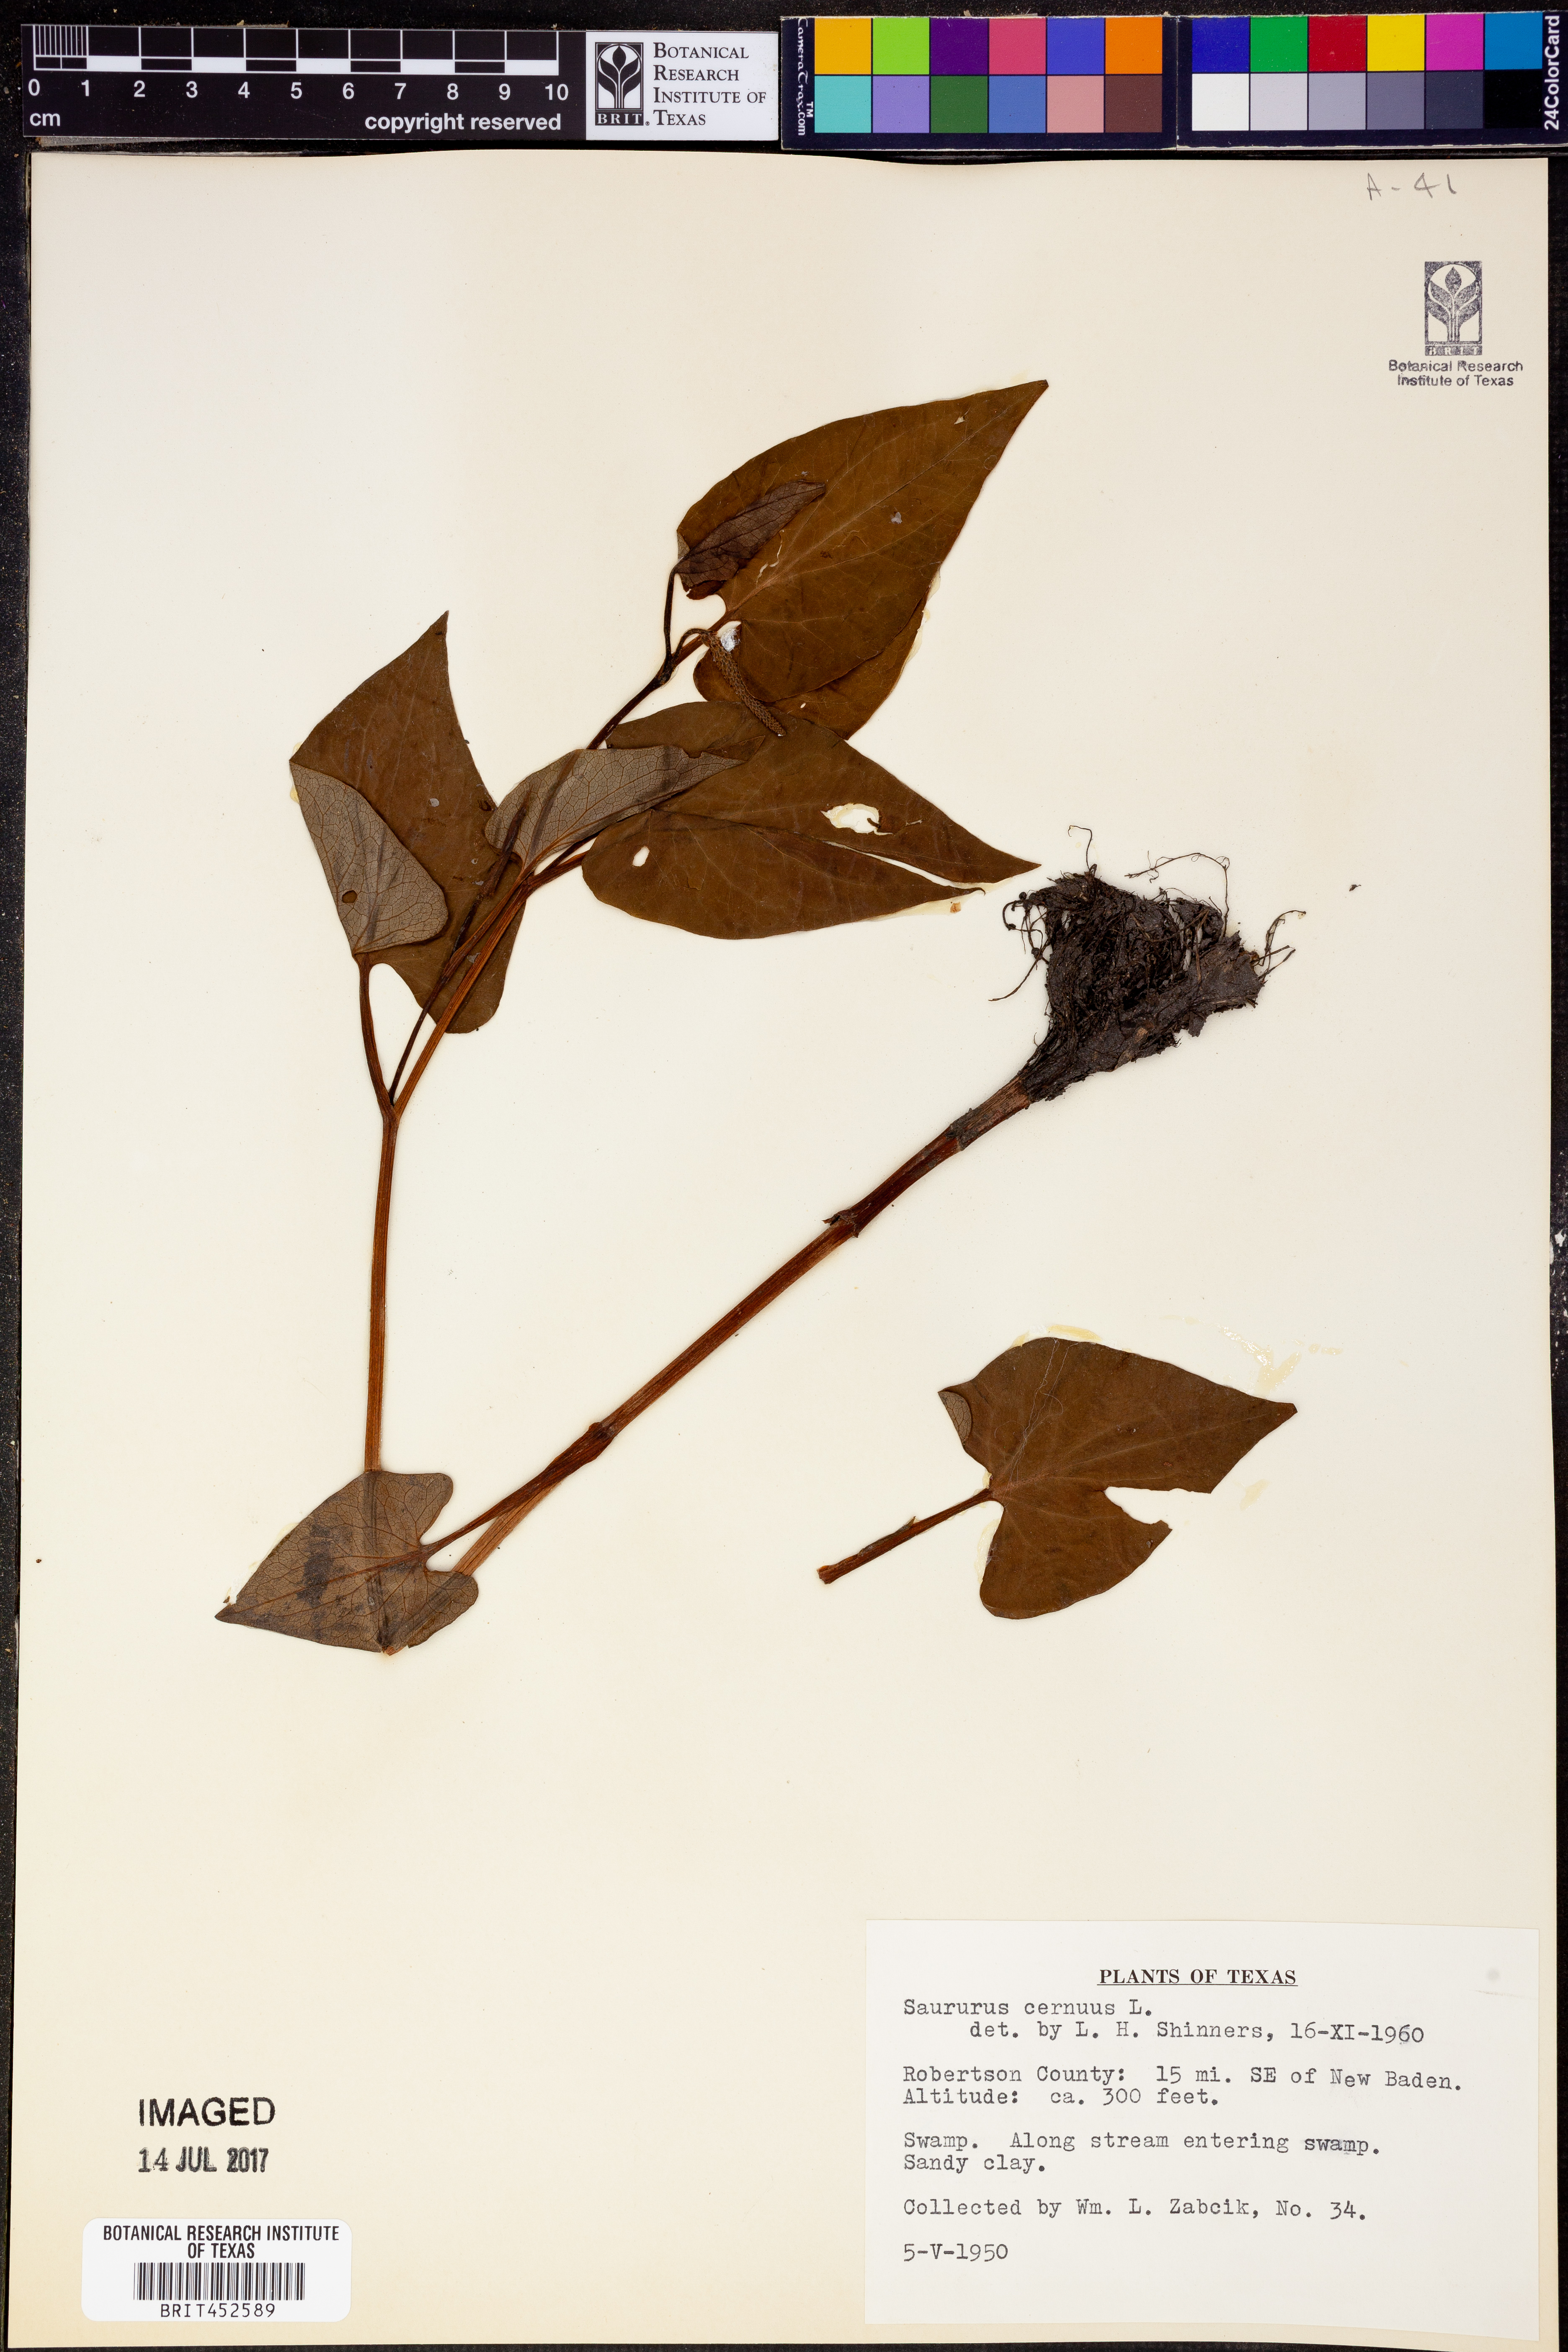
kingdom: Plantae
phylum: Tracheophyta
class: Magnoliopsida
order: Piperales
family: Saururaceae
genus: Saururus
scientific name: Saururus cernuus
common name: Lizard's-tail
